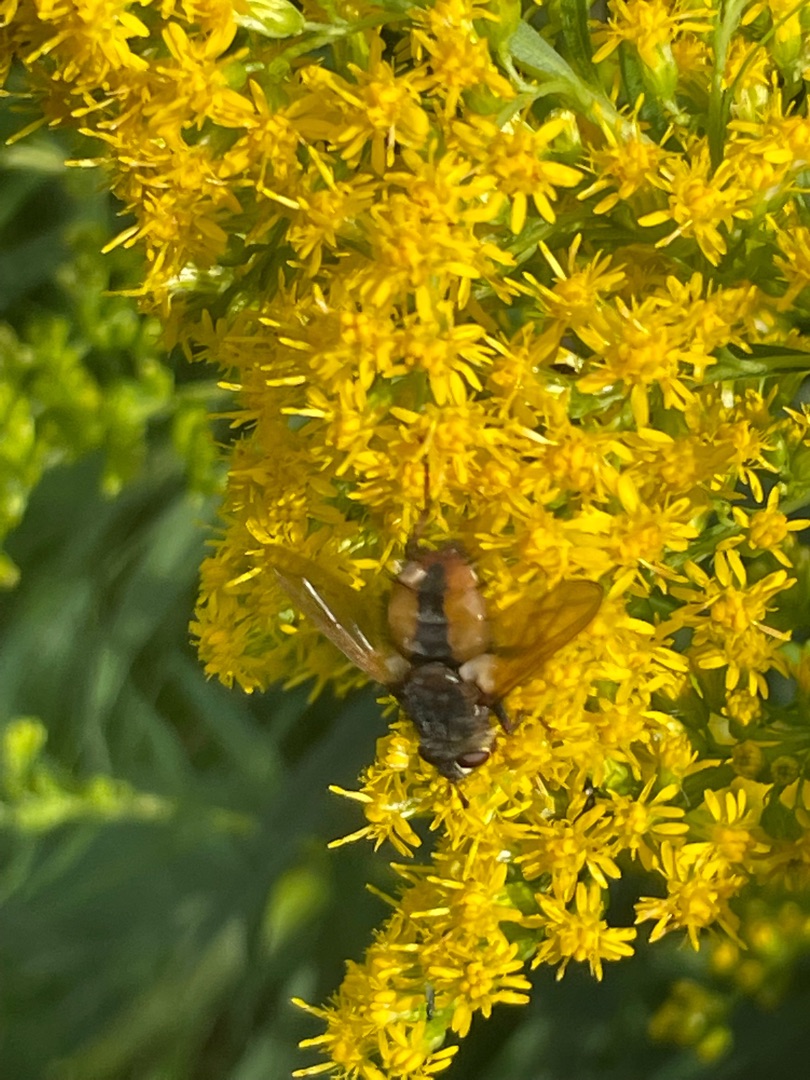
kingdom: Animalia
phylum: Arthropoda
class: Insecta
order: Diptera
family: Tachinidae
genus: Tachina
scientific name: Tachina fera
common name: Mellemfluen oskar
